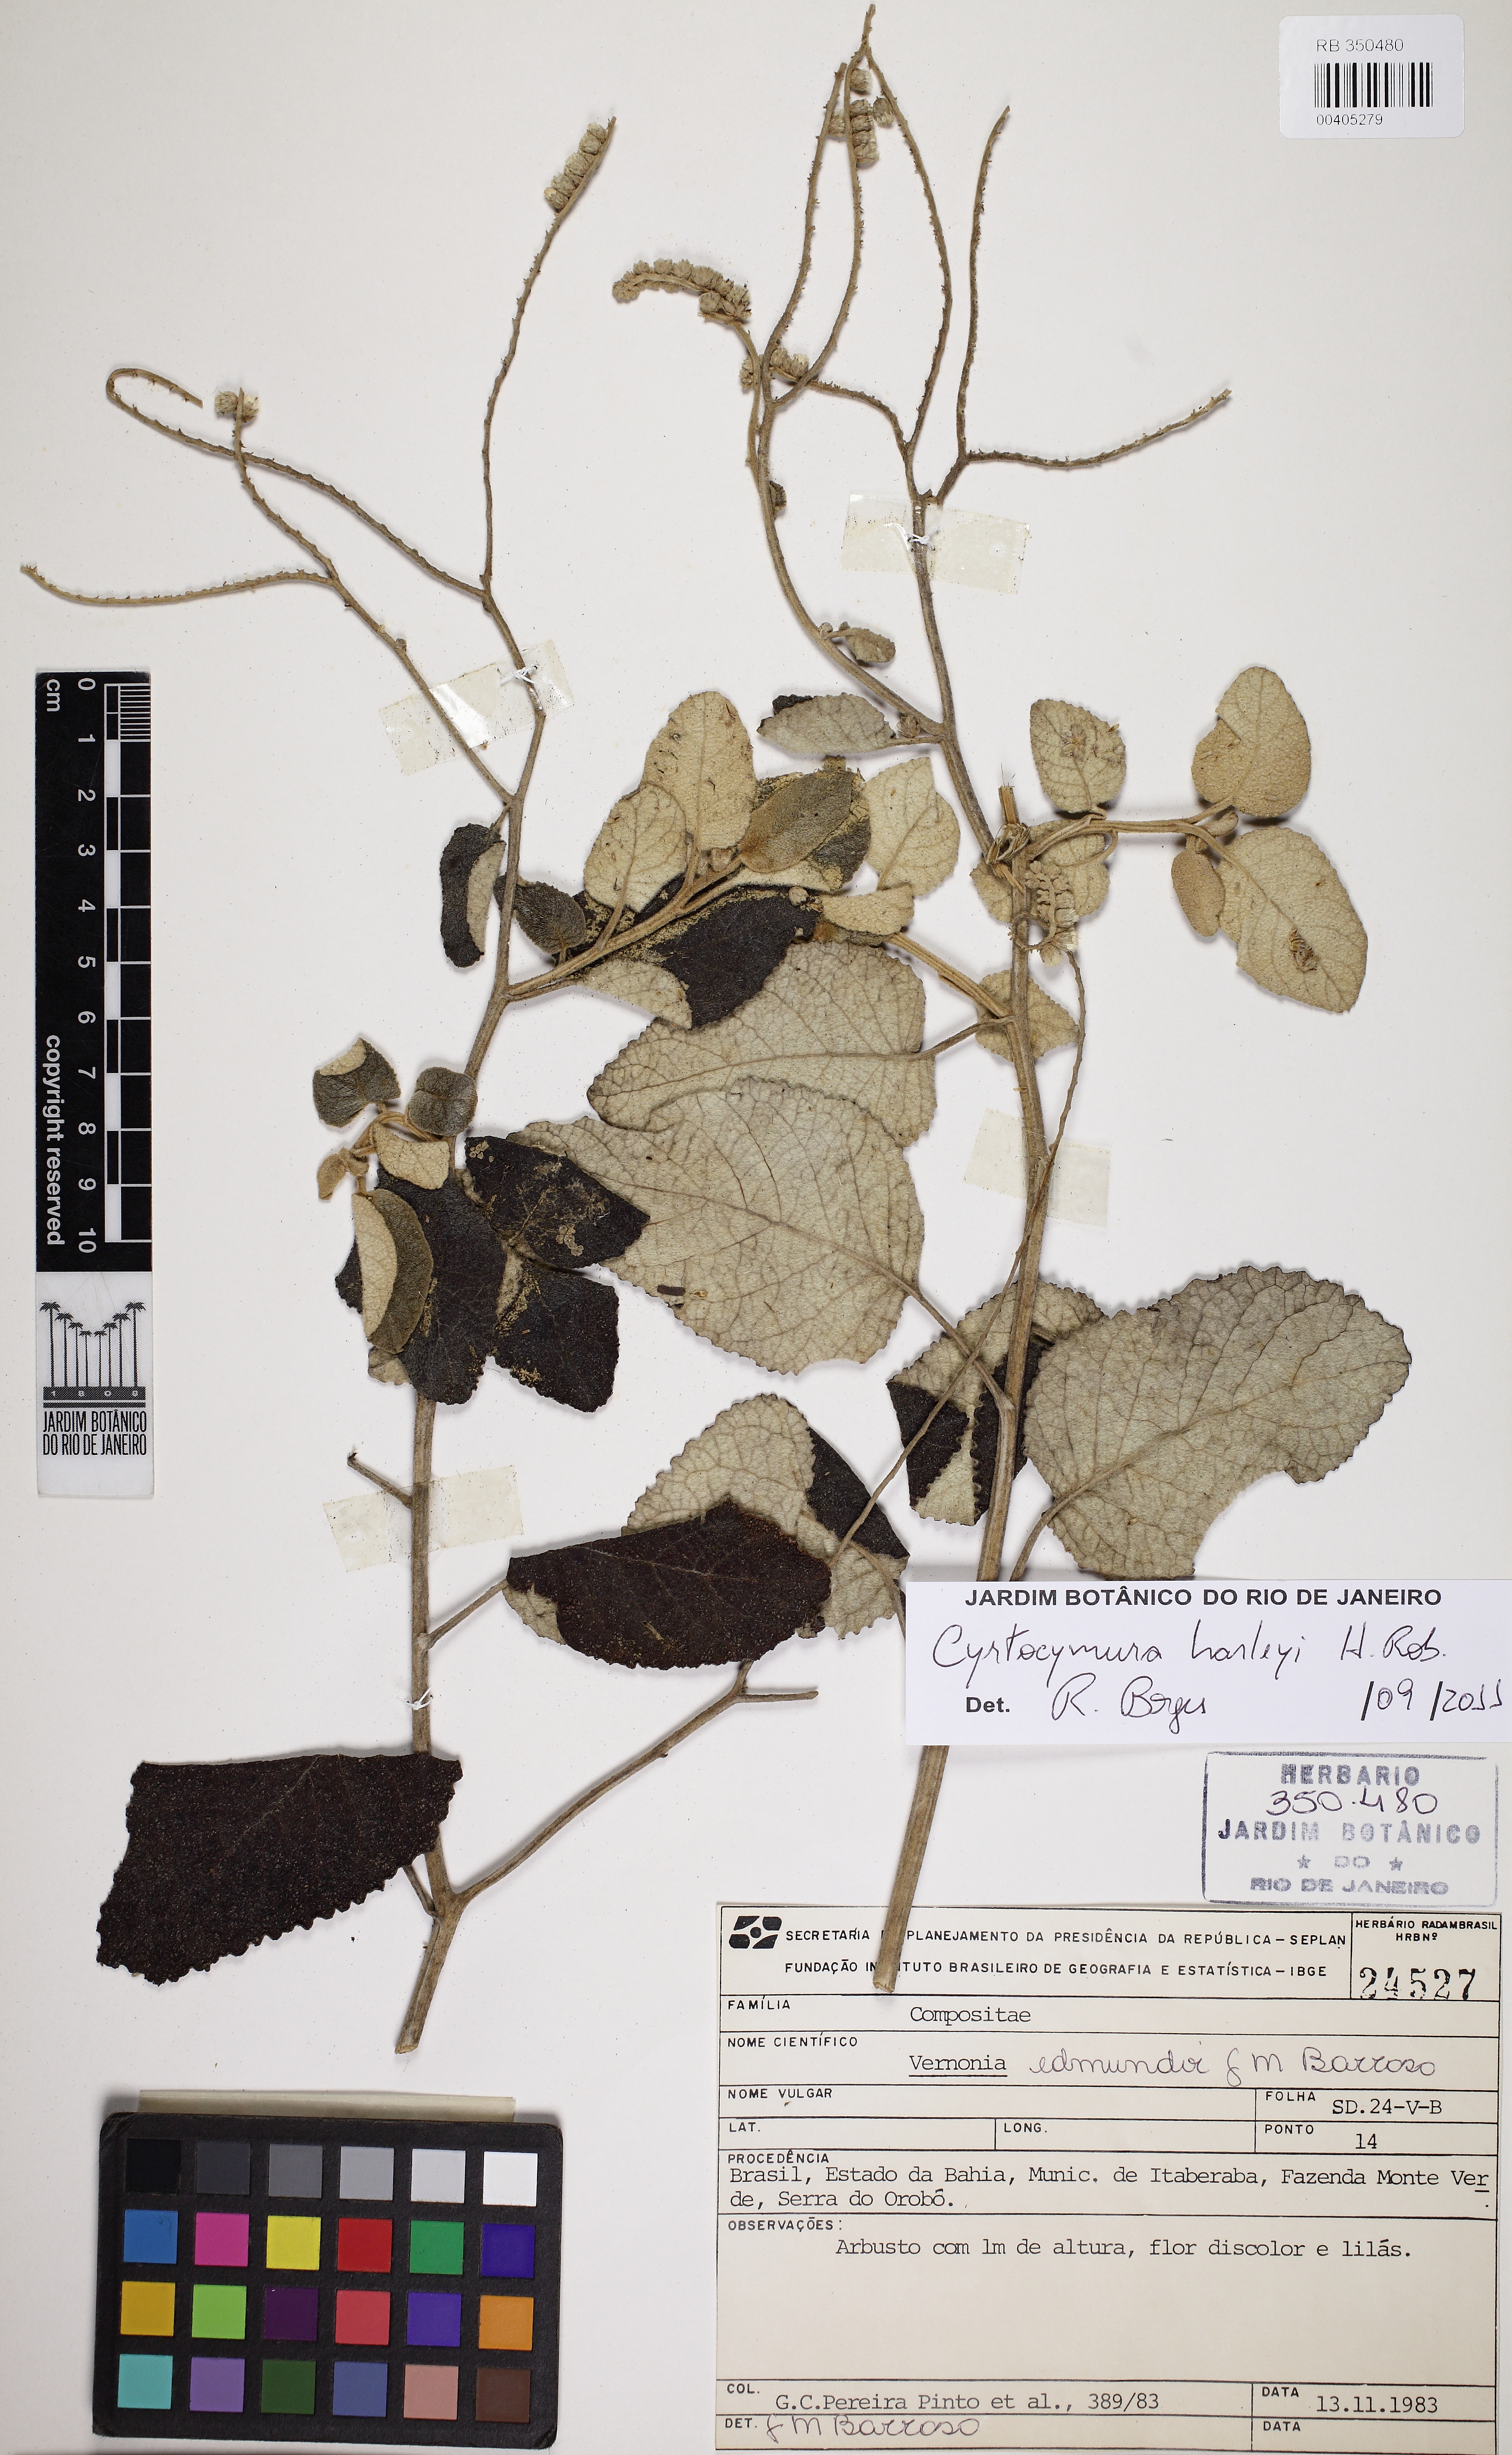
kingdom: Plantae
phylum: Tracheophyta
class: Magnoliopsida
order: Asterales
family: Asteraceae
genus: Cyrtocymura
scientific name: Cyrtocymura harleyi
